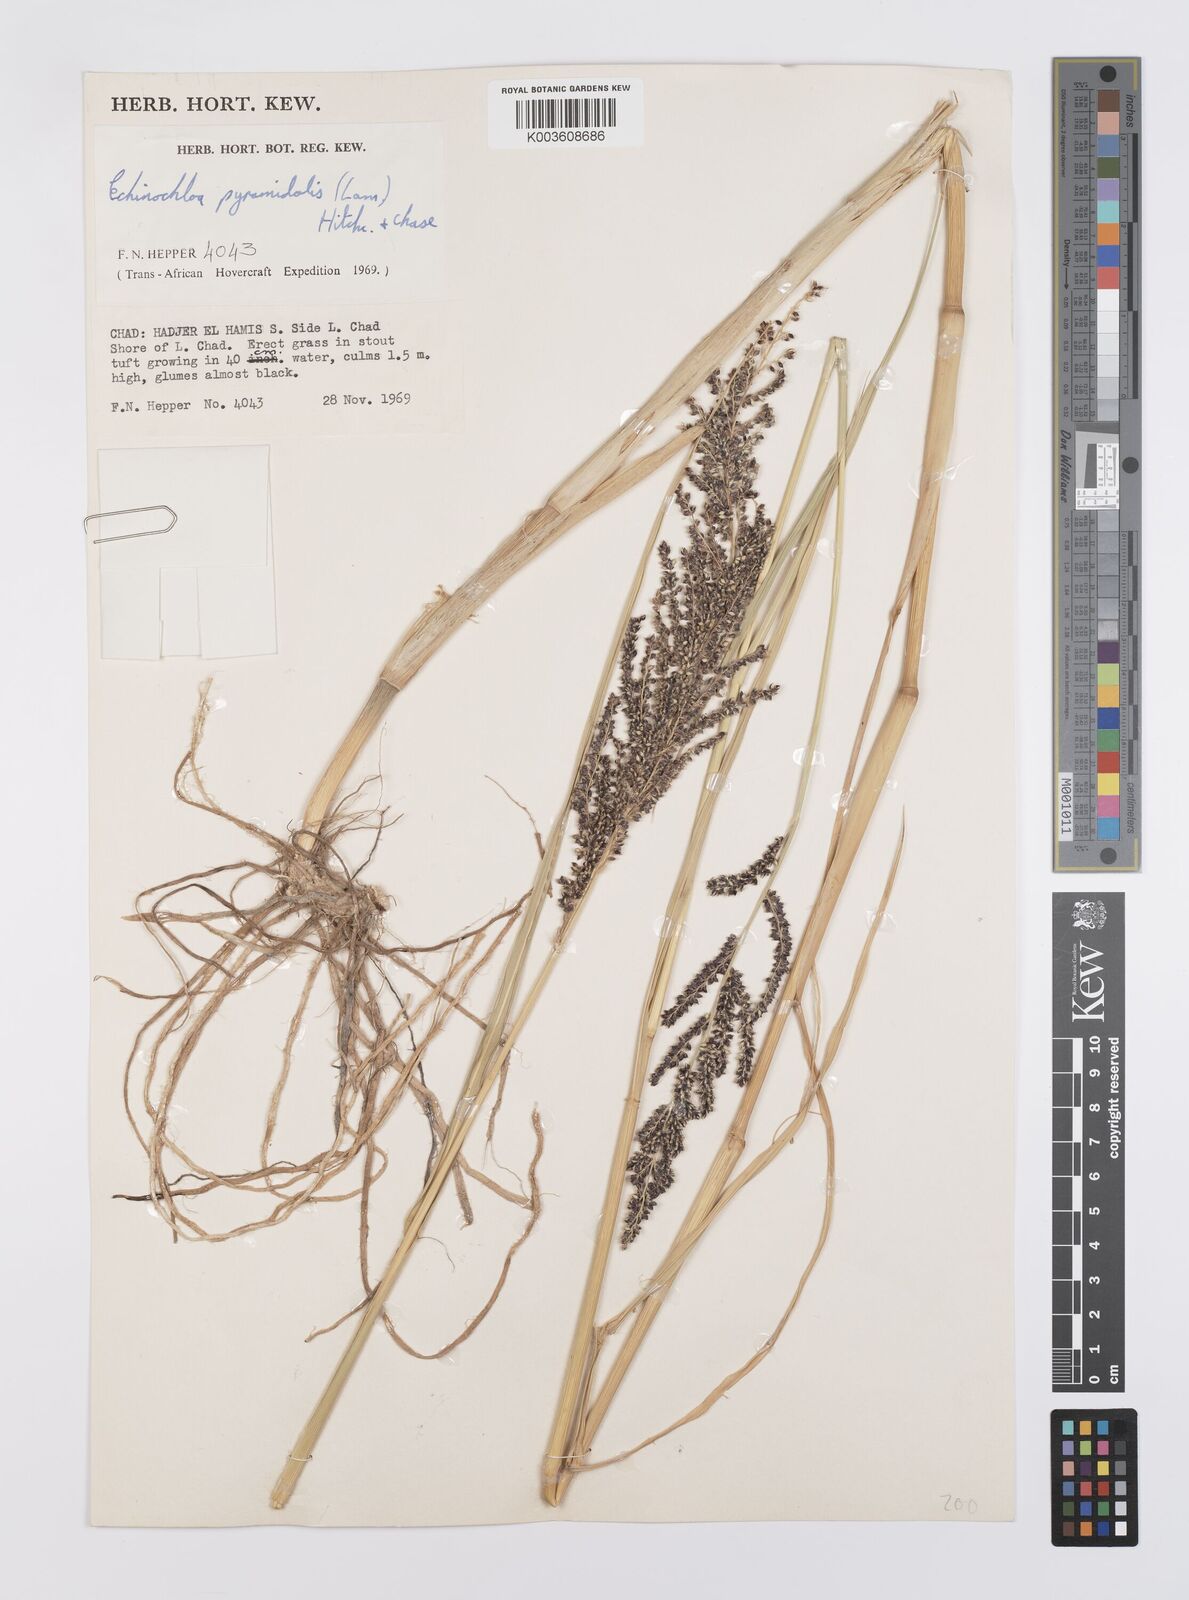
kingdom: Plantae
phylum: Tracheophyta
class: Liliopsida
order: Poales
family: Poaceae
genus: Echinochloa
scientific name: Echinochloa pyramidalis
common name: Antelope grass
